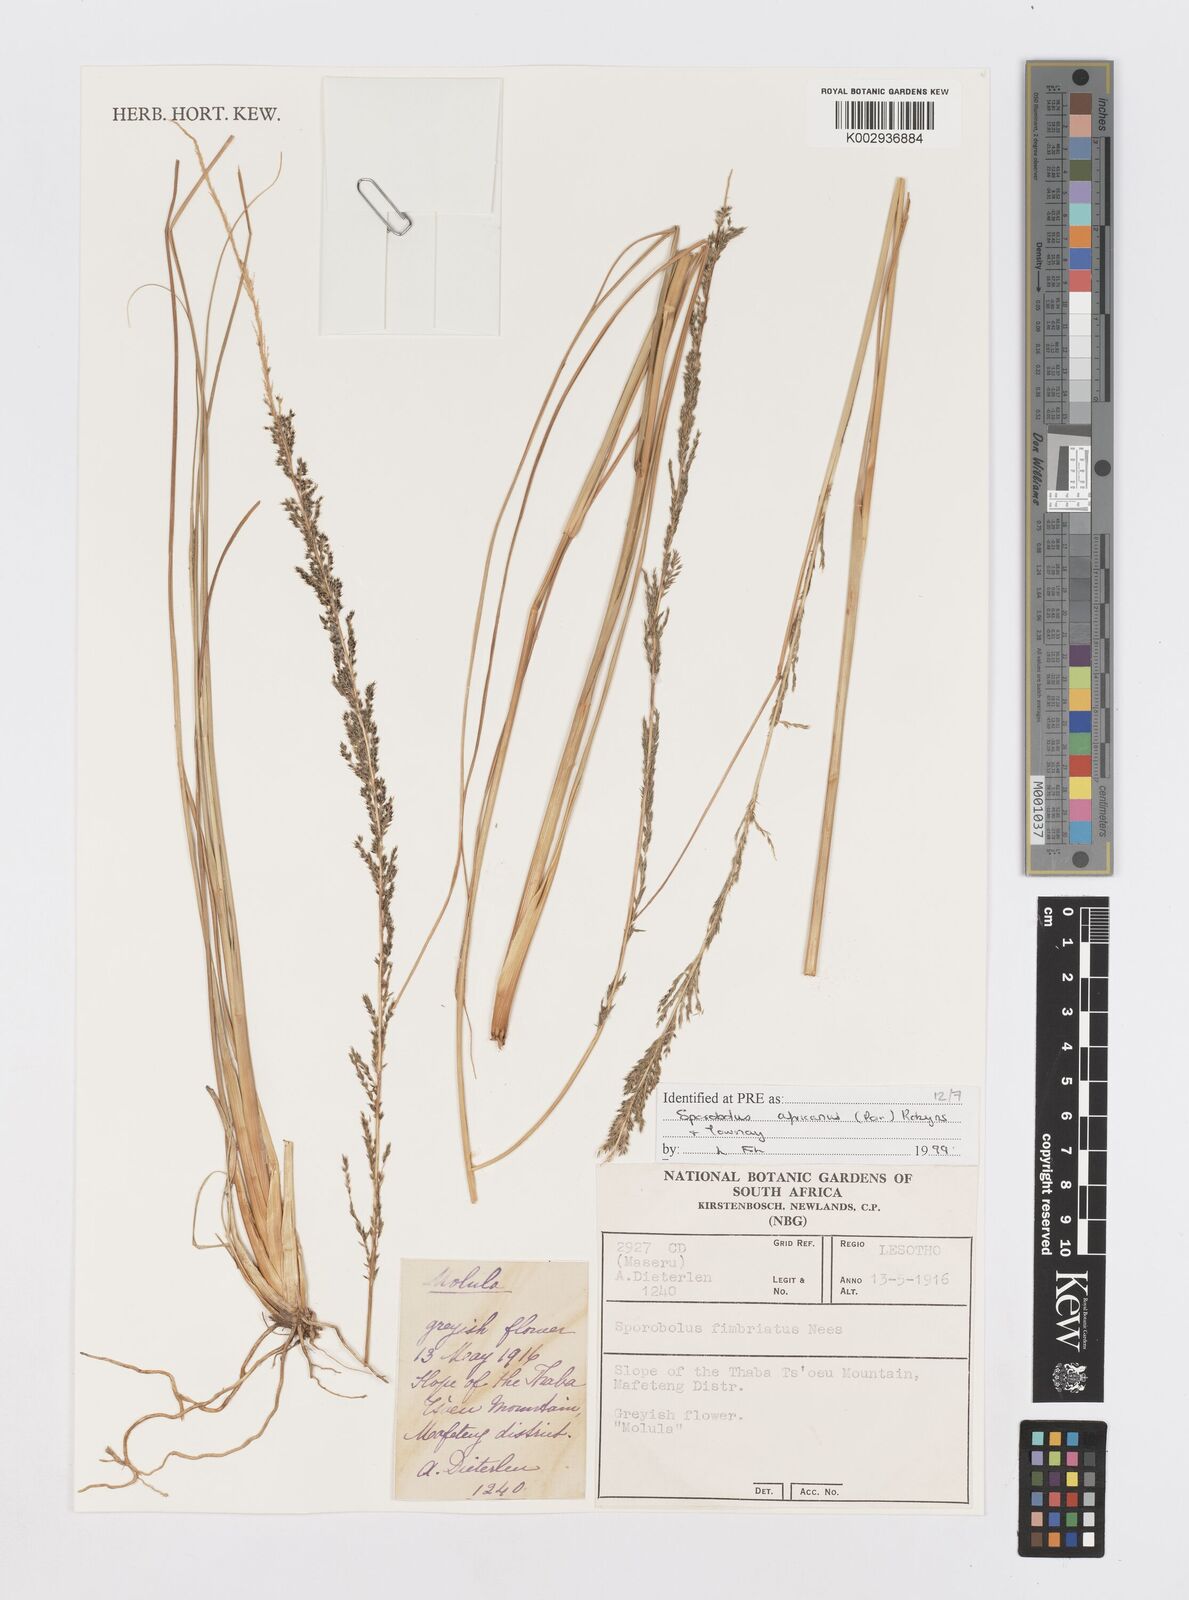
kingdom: Plantae
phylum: Tracheophyta
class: Liliopsida
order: Poales
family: Poaceae
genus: Sporobolus
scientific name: Sporobolus africanus
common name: African dropseed
